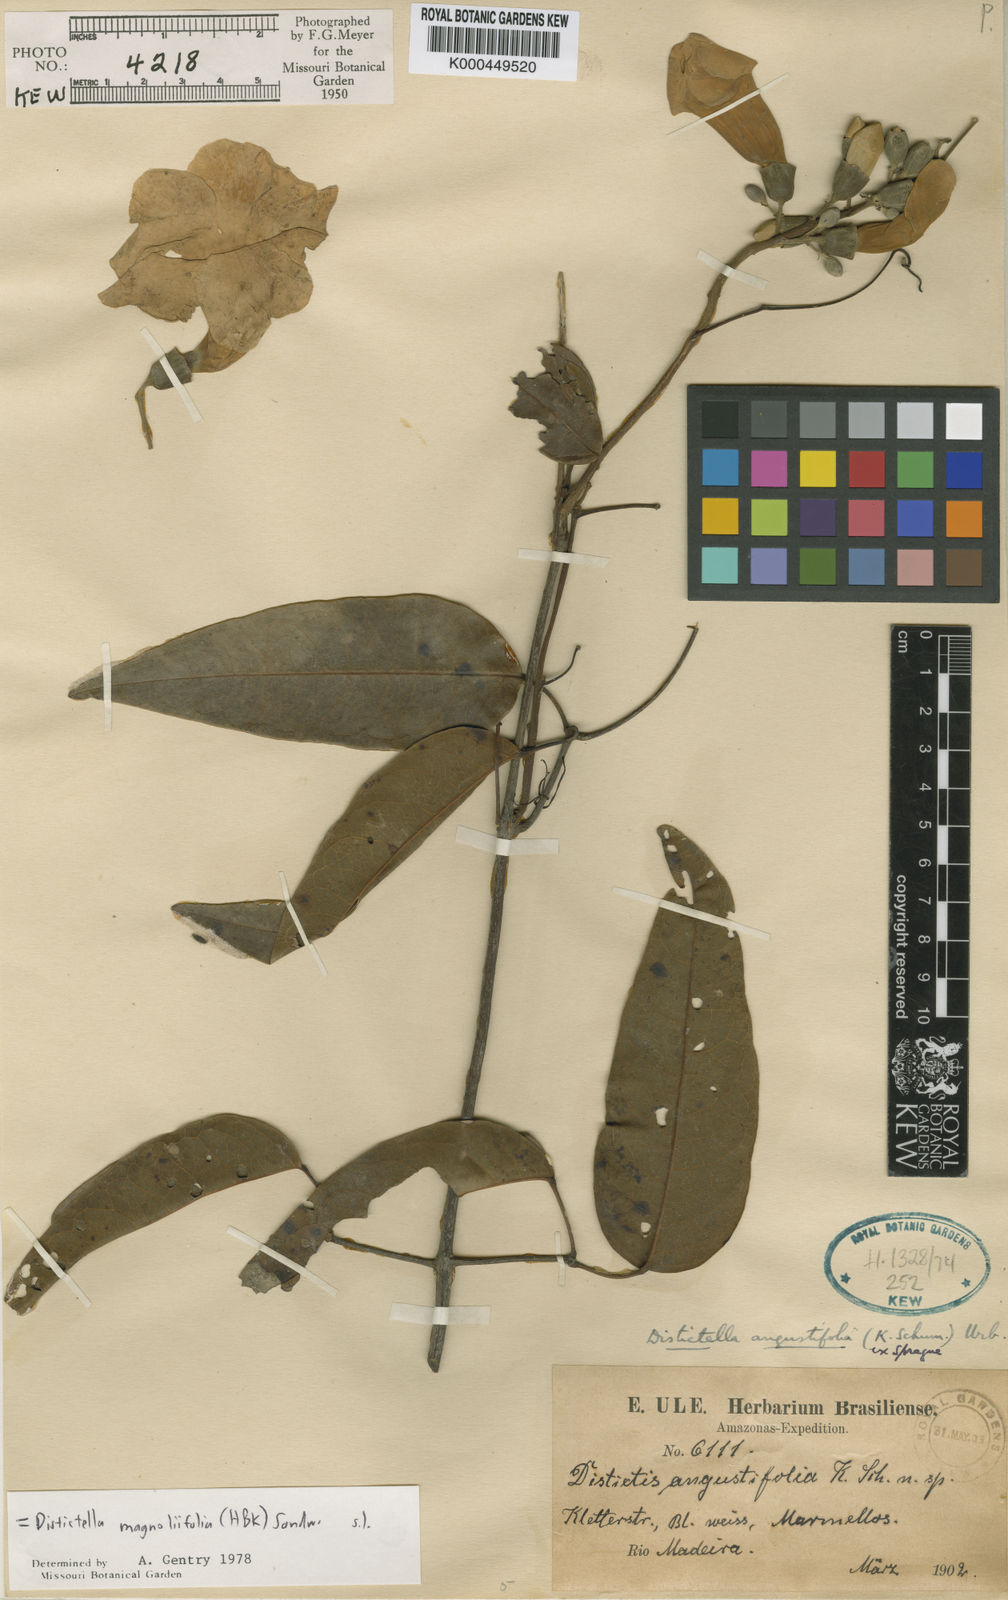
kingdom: Plantae
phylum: Tracheophyta
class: Magnoliopsida
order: Lamiales
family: Bignoniaceae
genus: Amphilophium
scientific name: Amphilophium magnoliifolium
